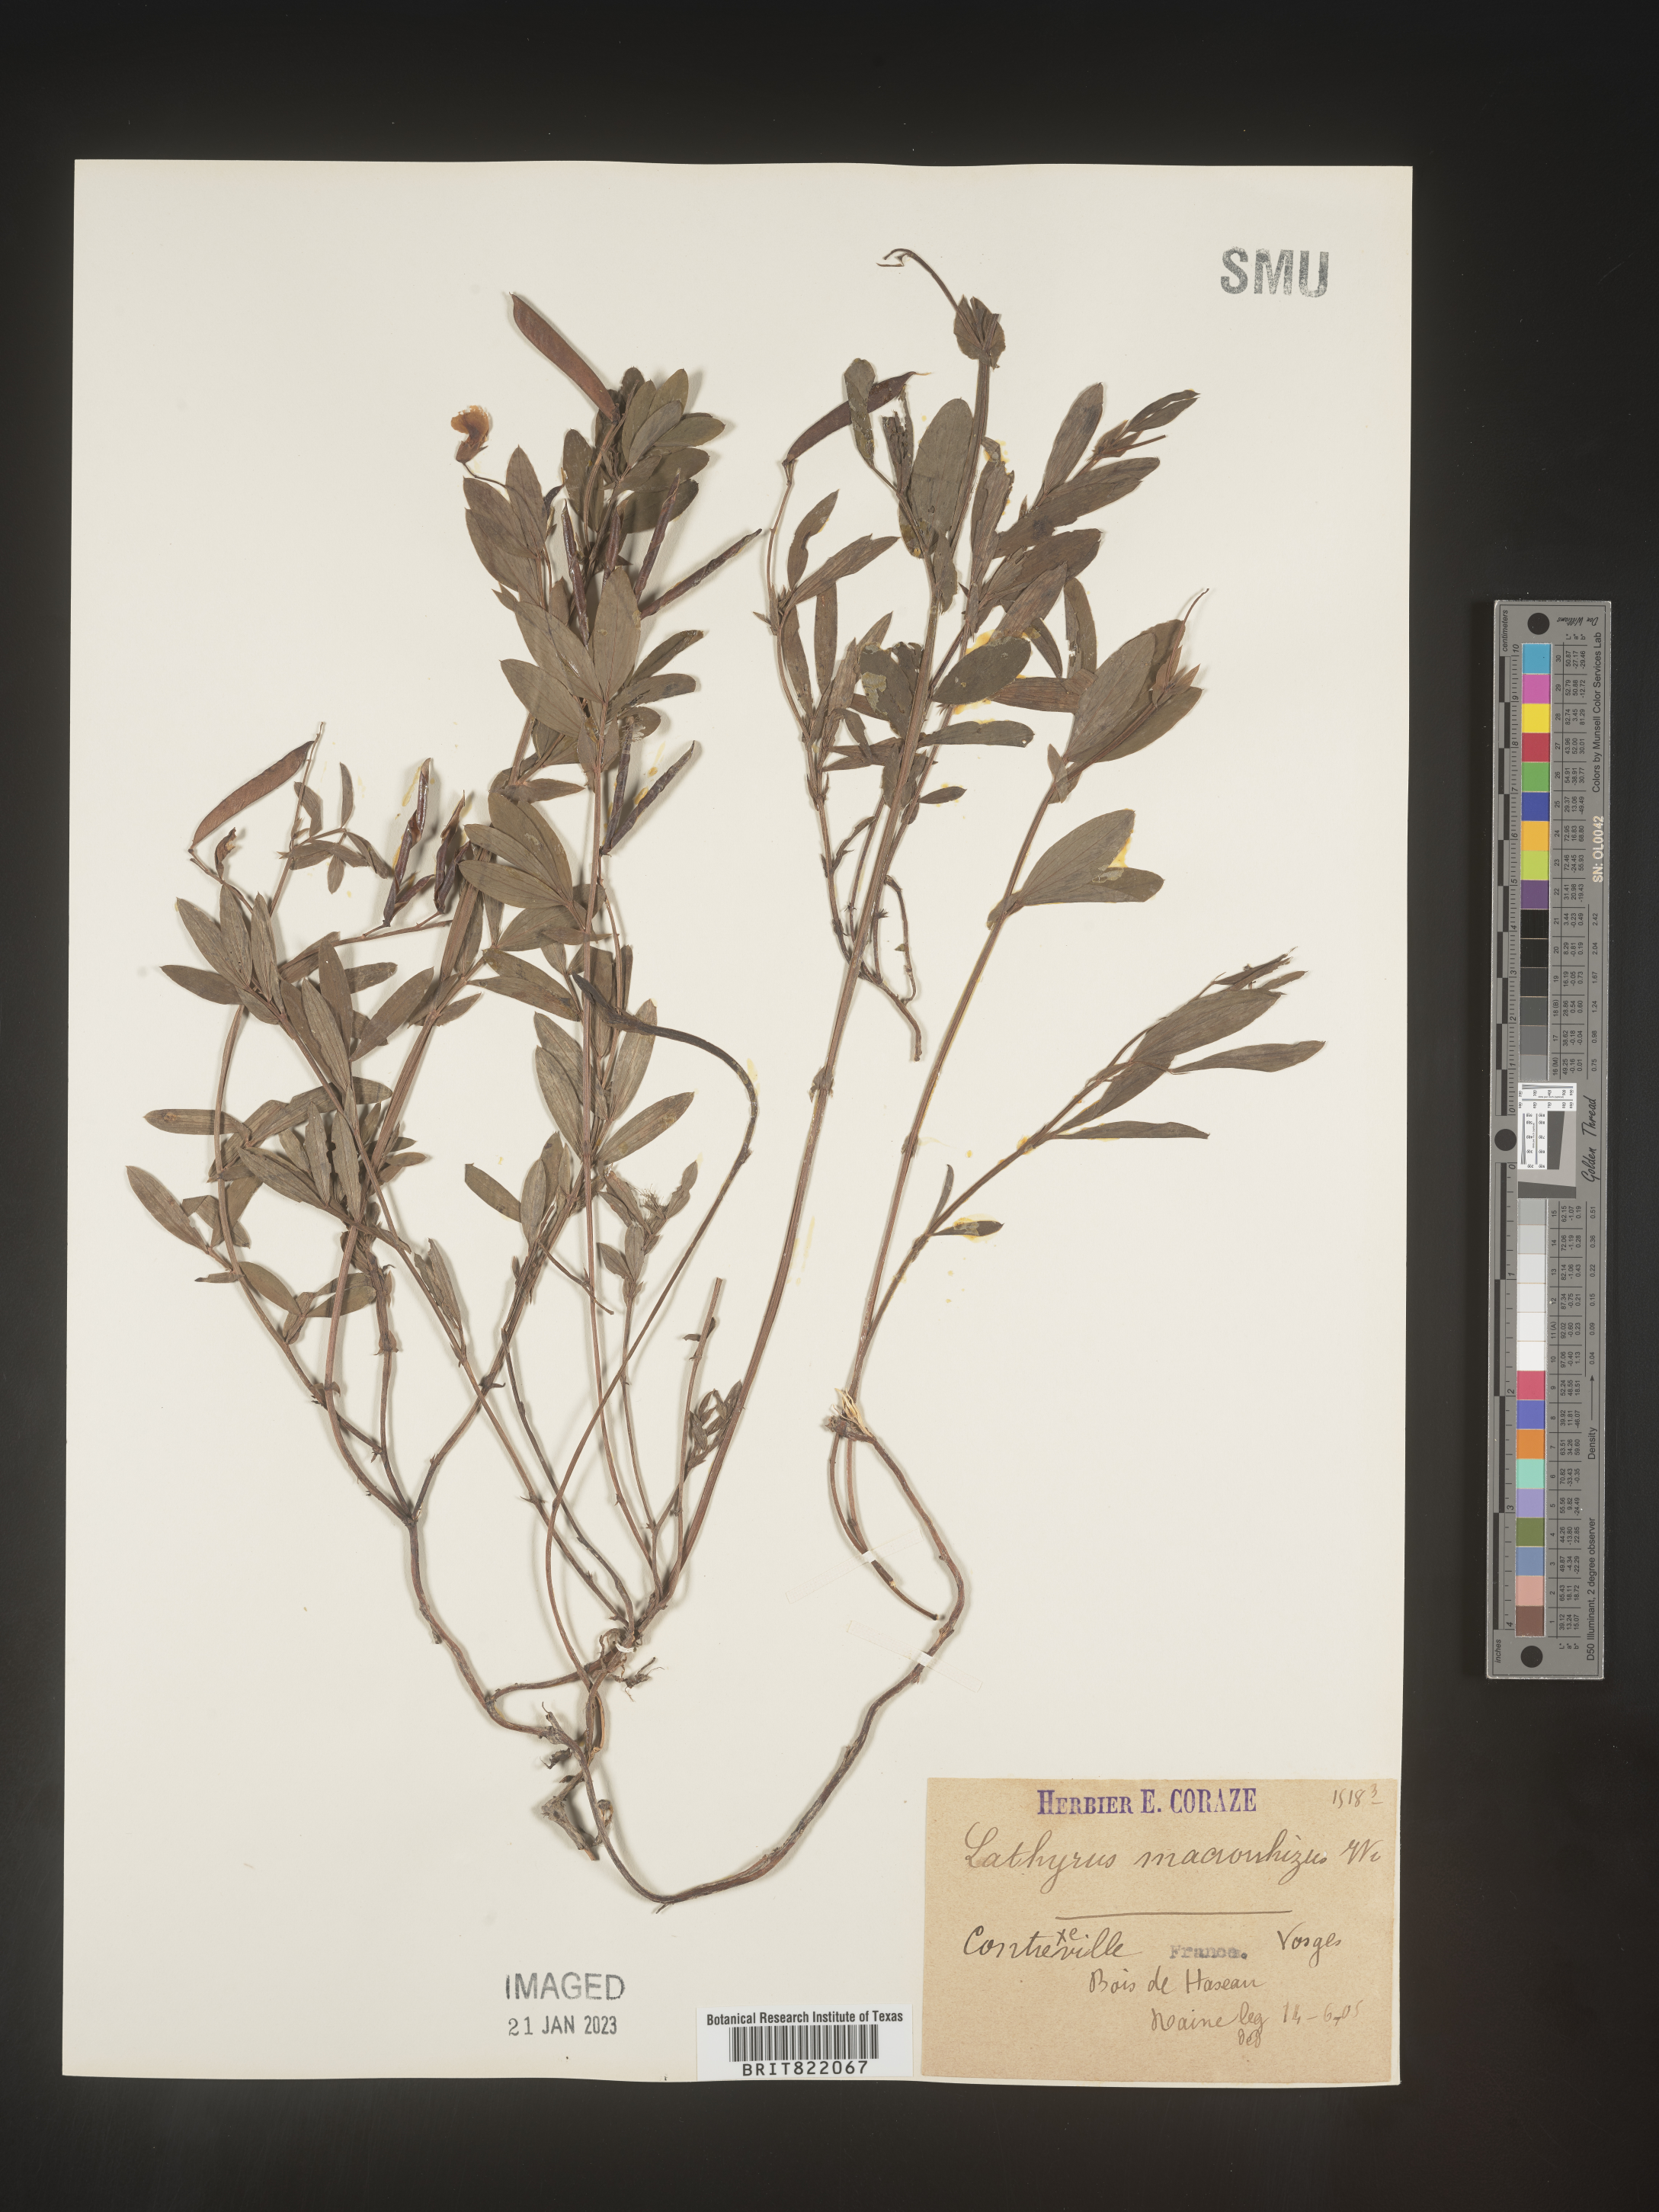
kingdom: Plantae
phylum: Tracheophyta
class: Magnoliopsida
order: Fabales
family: Fabaceae
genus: Lathyrus
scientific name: Lathyrus
